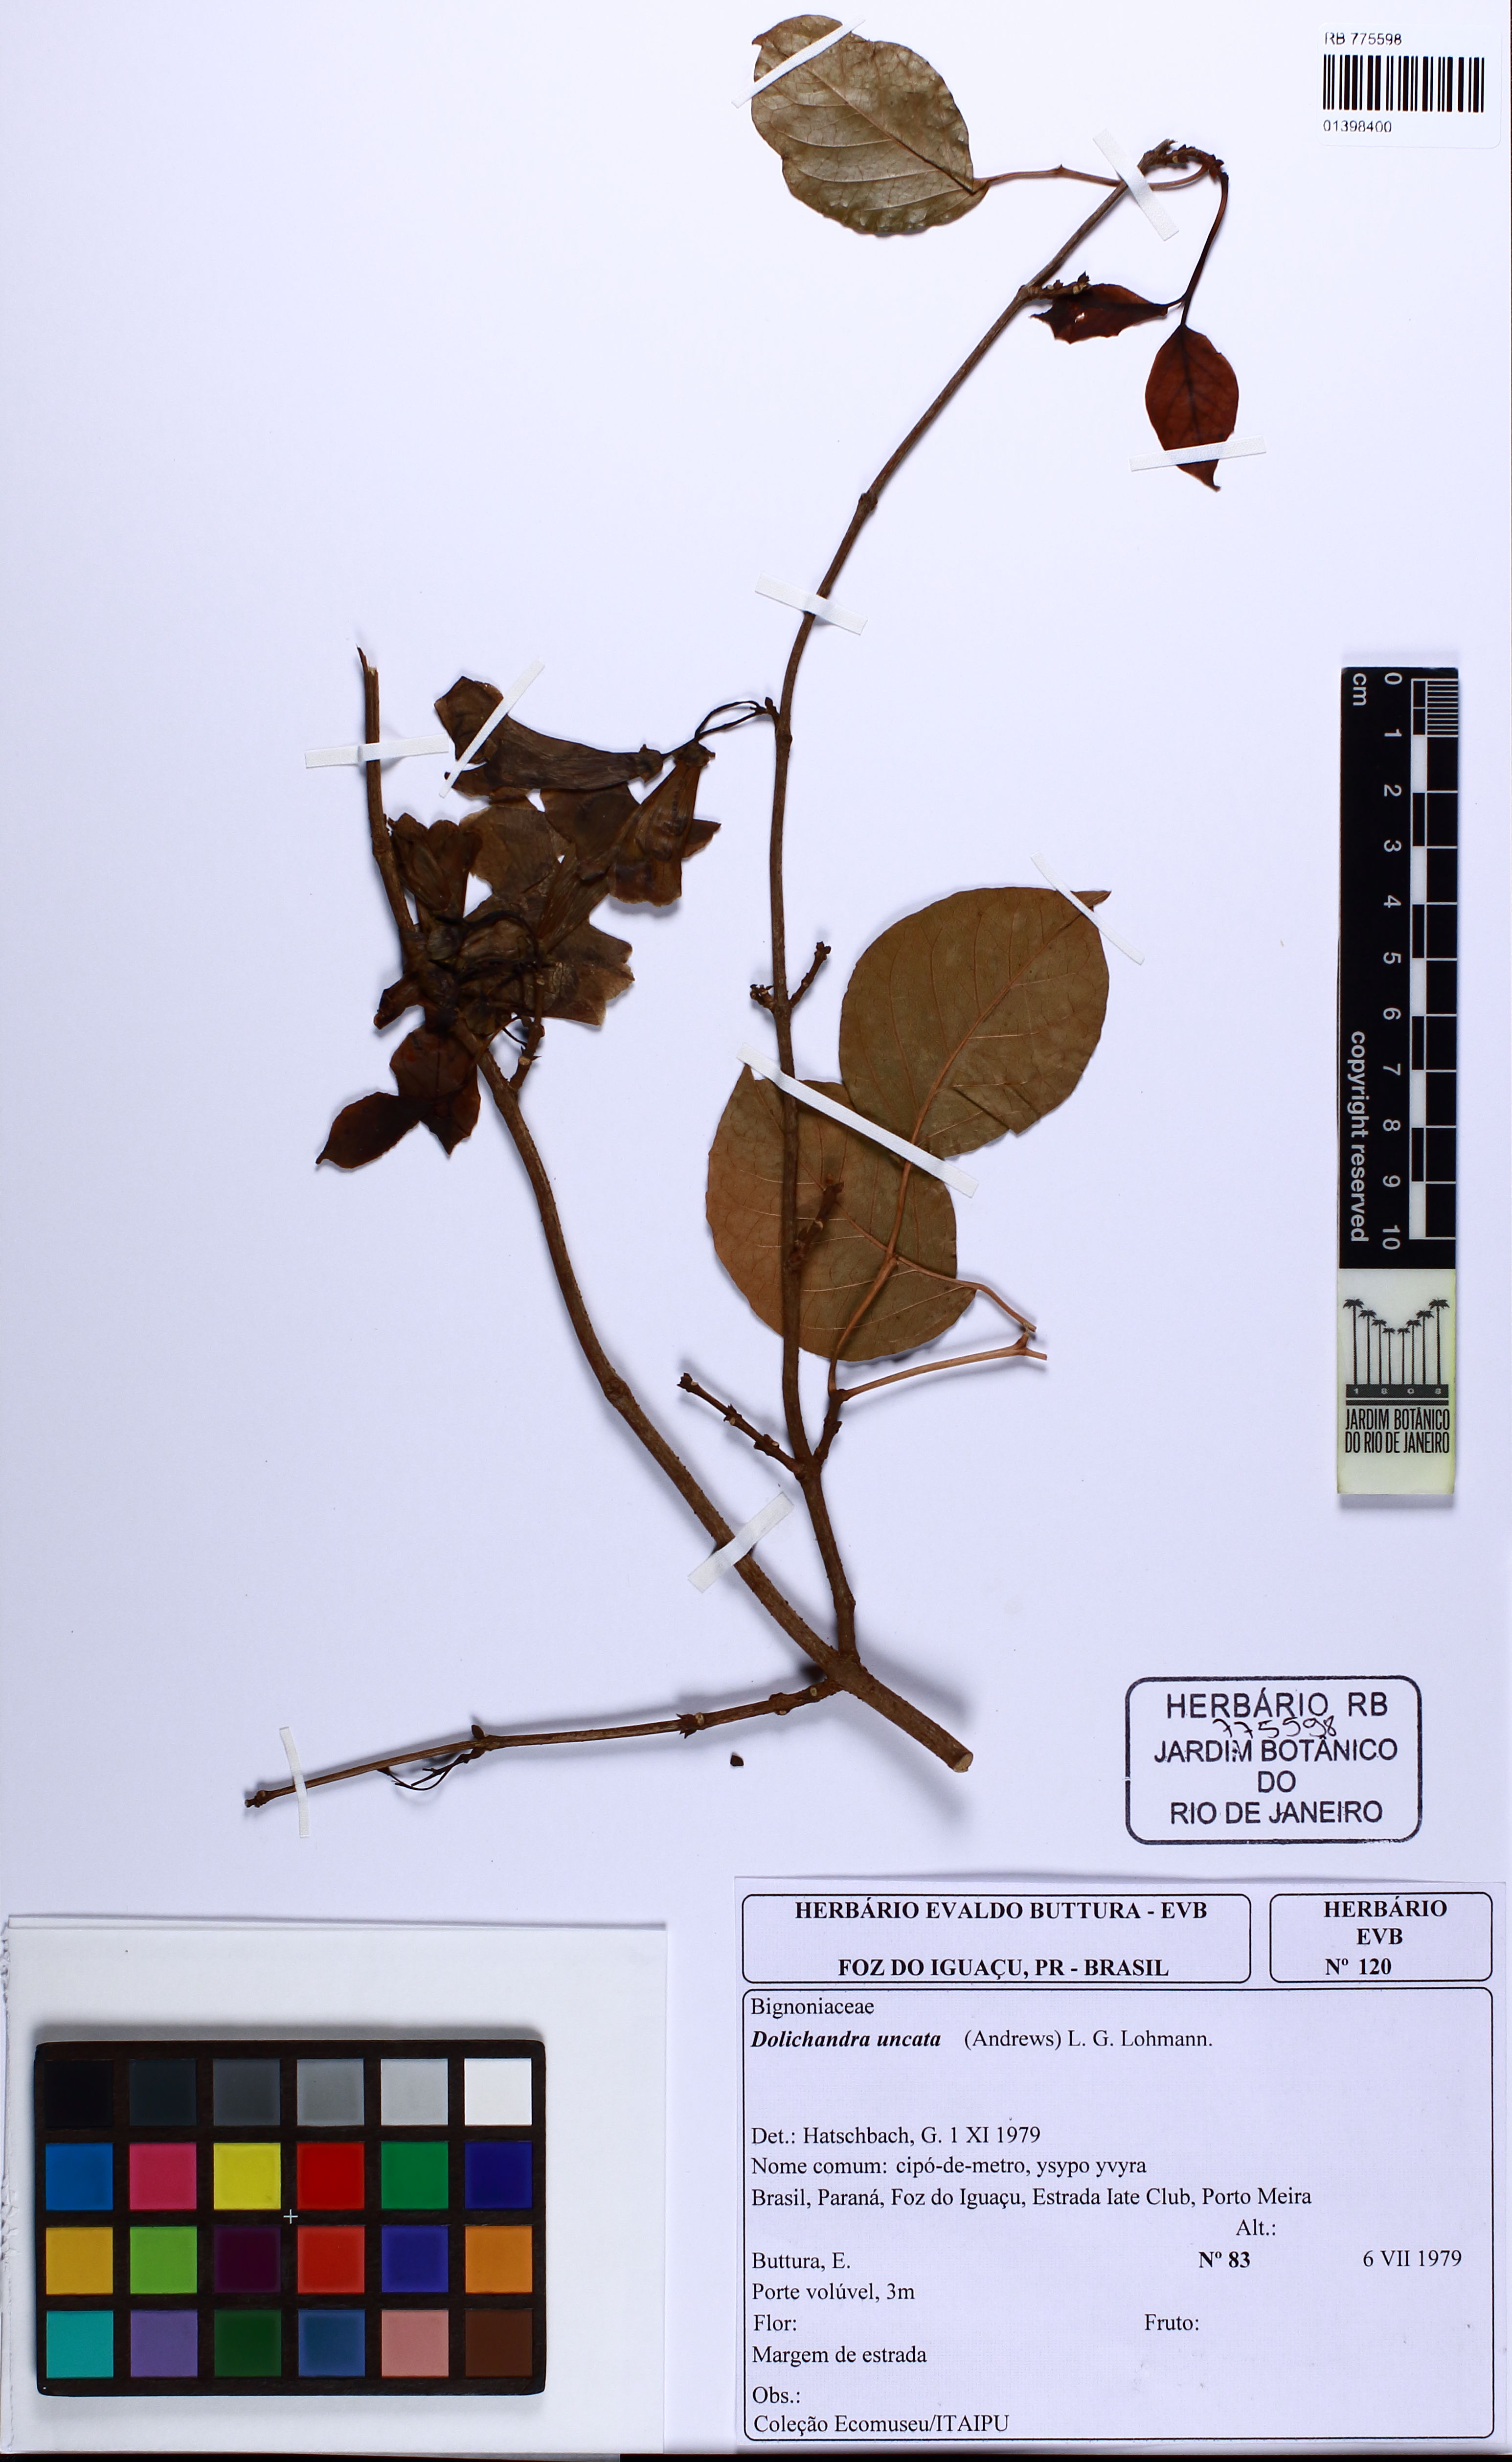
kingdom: Plantae
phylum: Tracheophyta
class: Magnoliopsida
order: Lamiales
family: Bignoniaceae
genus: Dolichandra
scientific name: Dolichandra uncata
